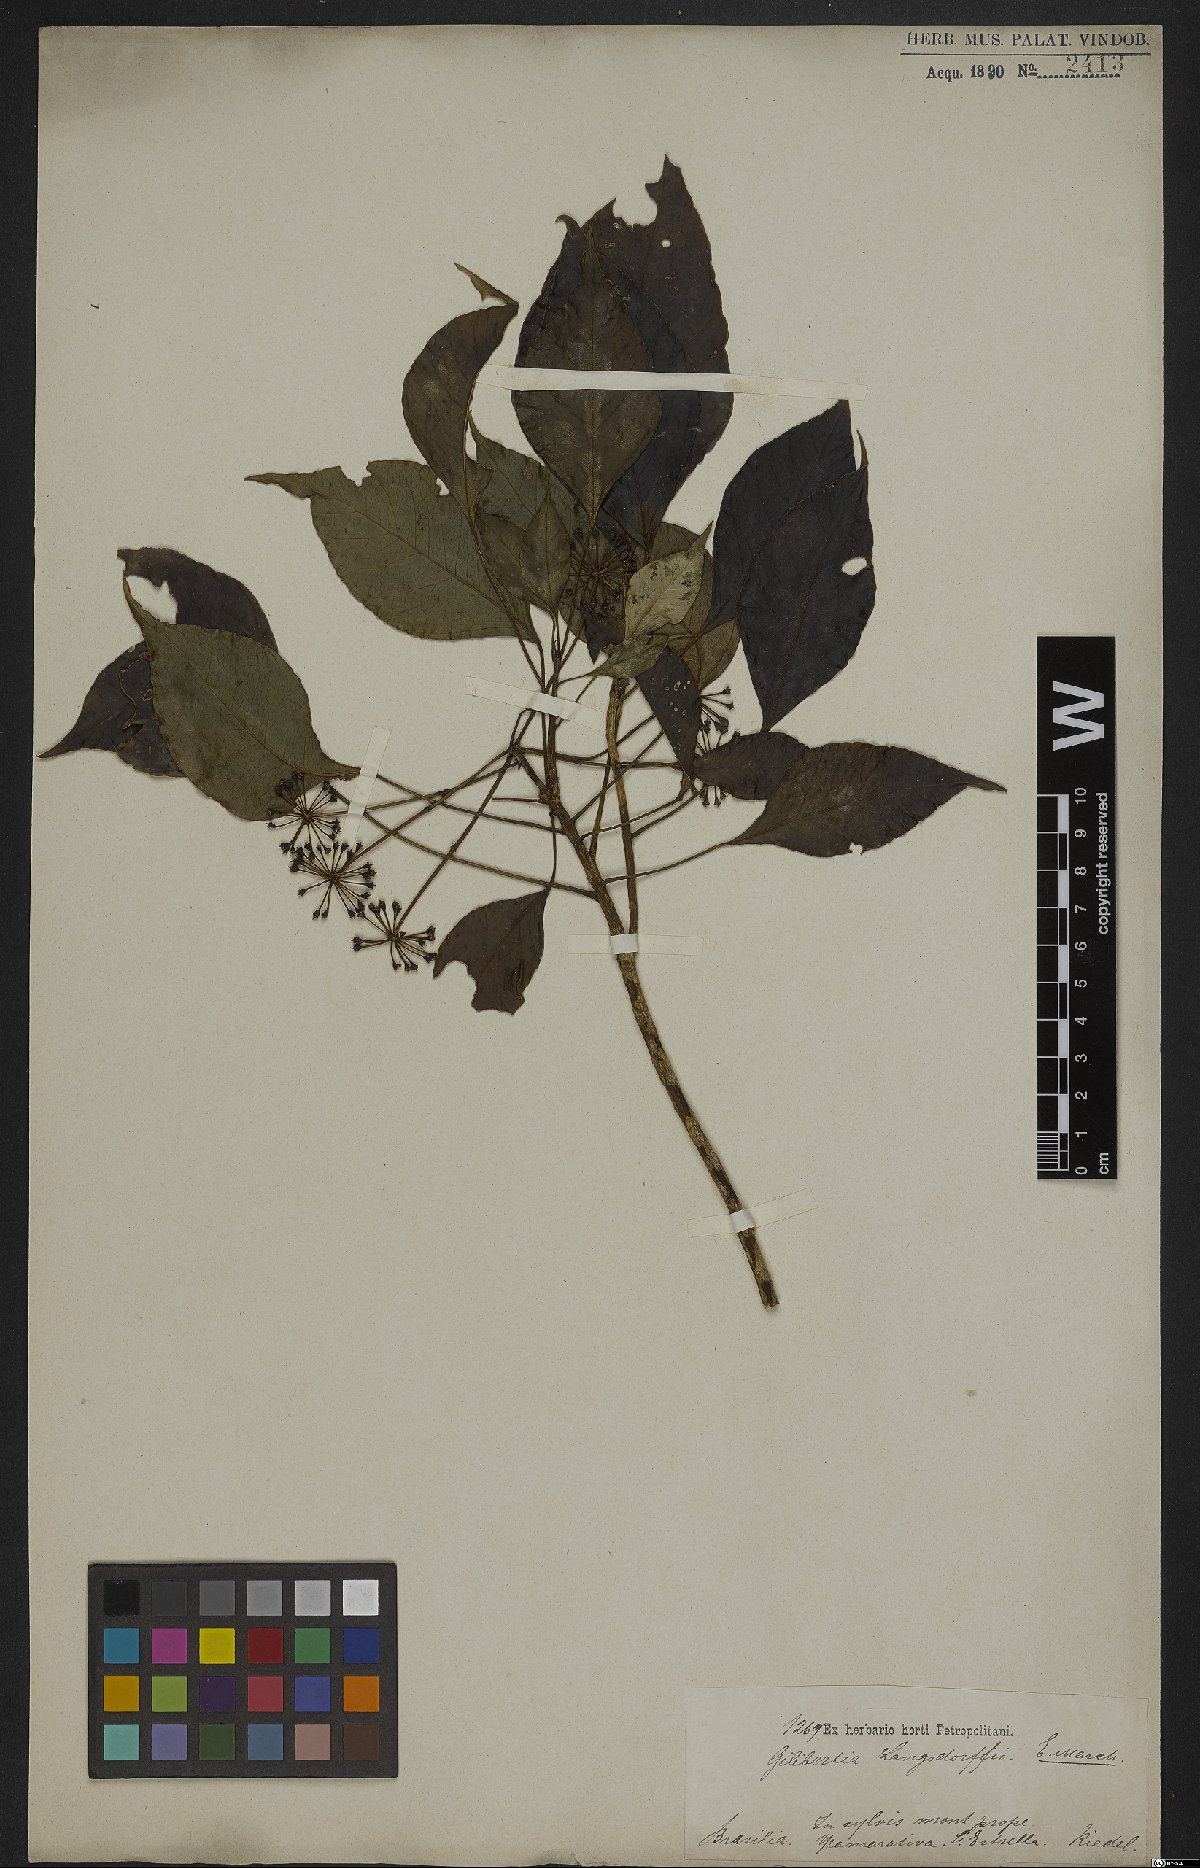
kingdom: Plantae
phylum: Tracheophyta
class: Magnoliopsida
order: Apiales
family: Araliaceae
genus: Dendropanax
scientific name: Dendropanax langsdorffii
